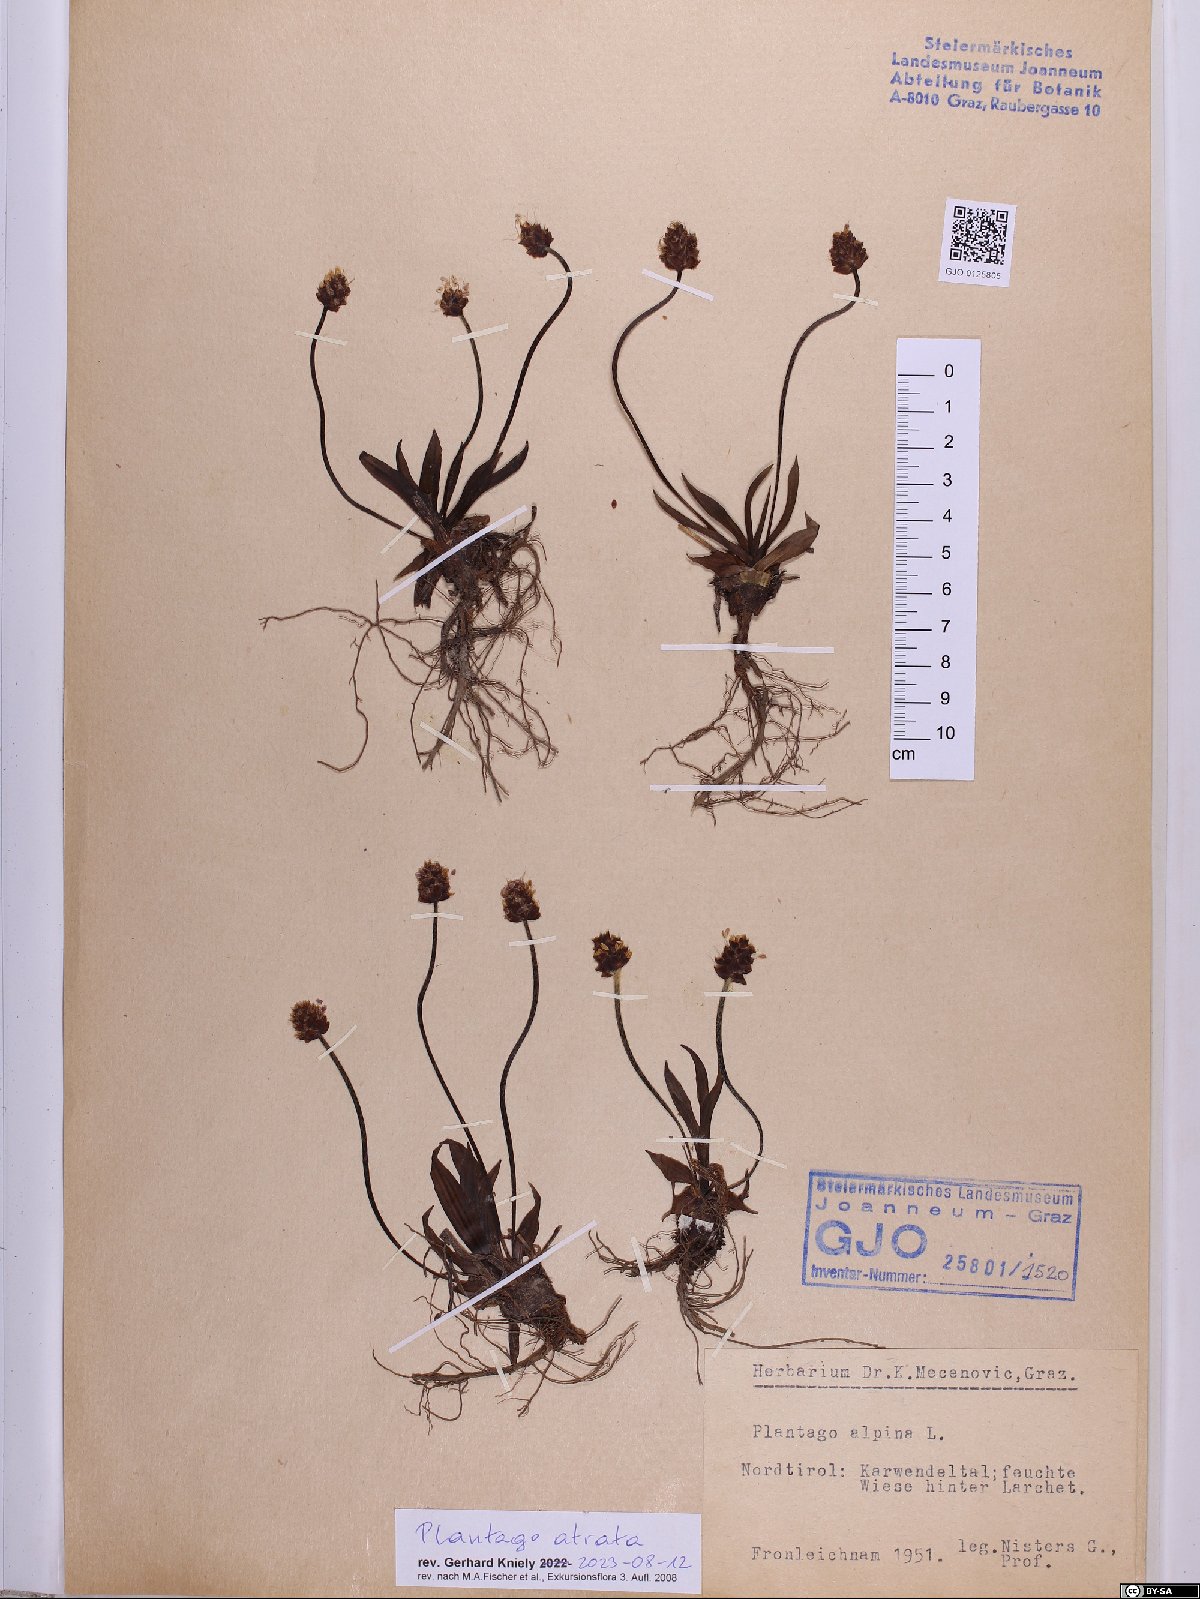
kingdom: Plantae
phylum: Tracheophyta
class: Magnoliopsida
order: Lamiales
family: Plantaginaceae
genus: Plantago
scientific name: Plantago atrata
